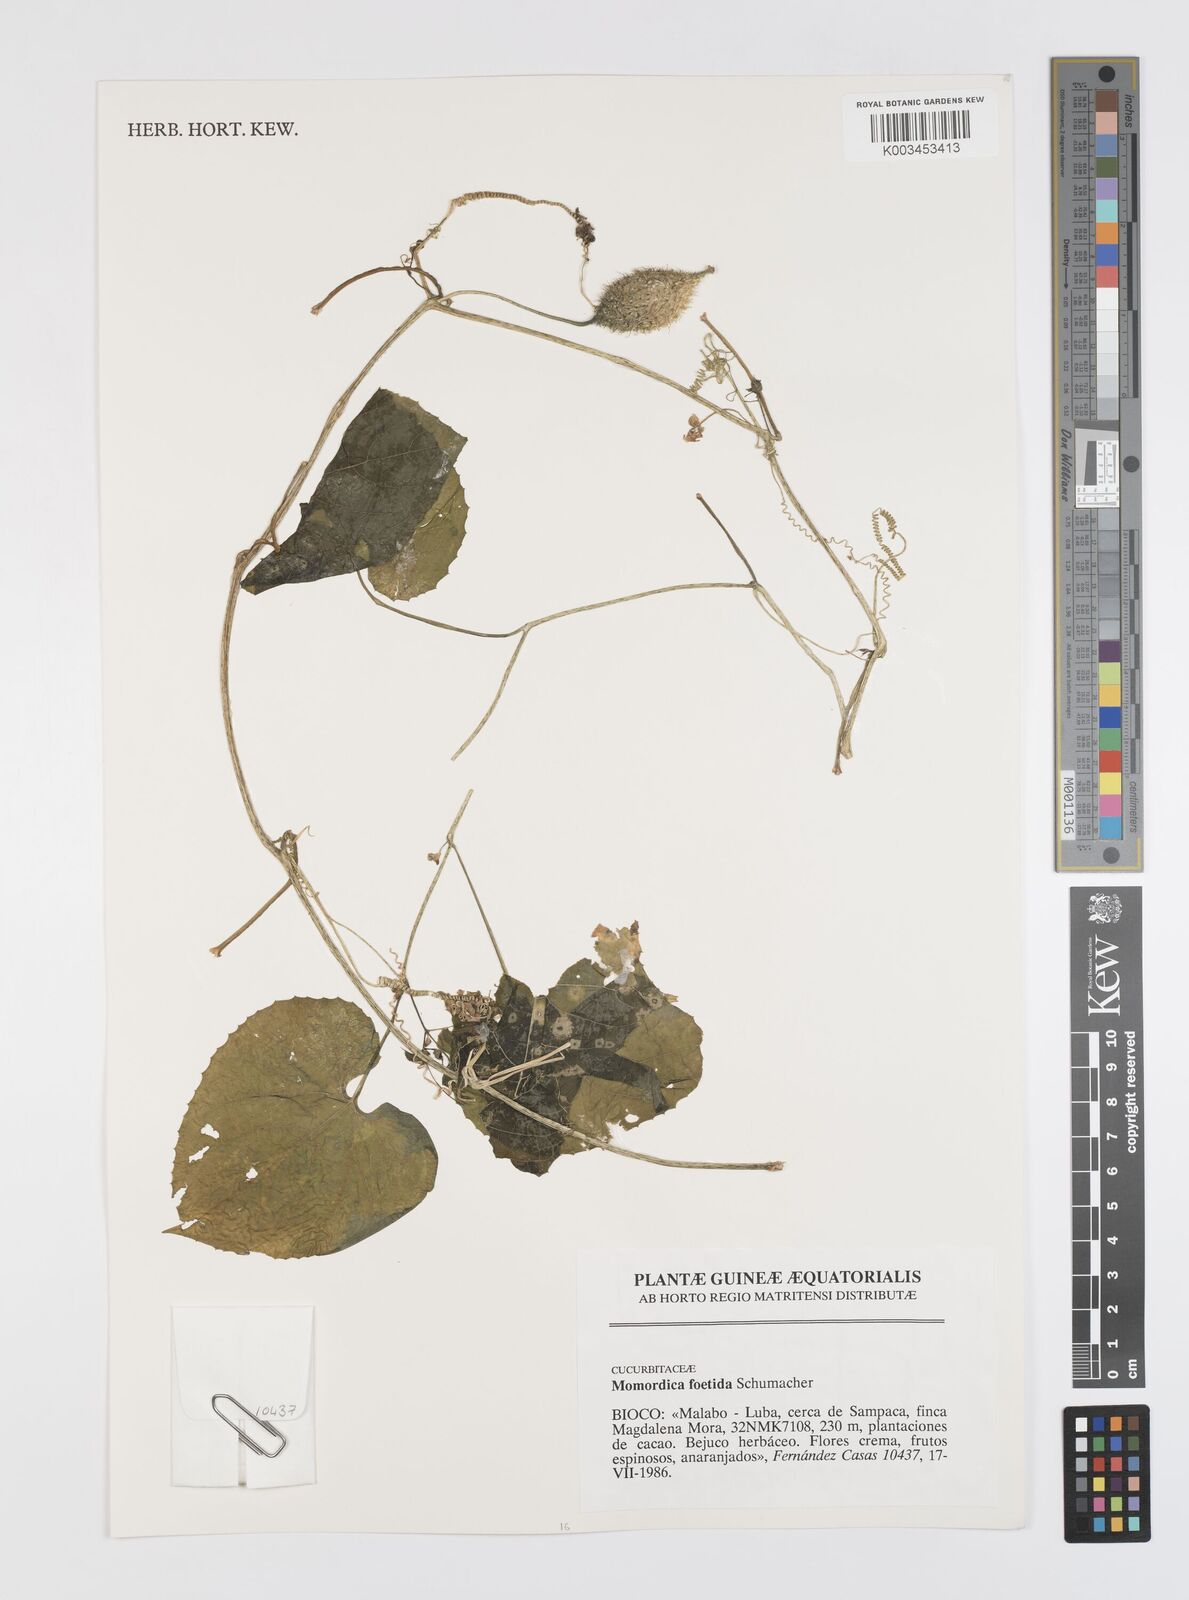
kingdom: Plantae
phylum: Tracheophyta
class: Magnoliopsida
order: Cucurbitales
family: Cucurbitaceae
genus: Momordica
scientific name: Momordica foetida
